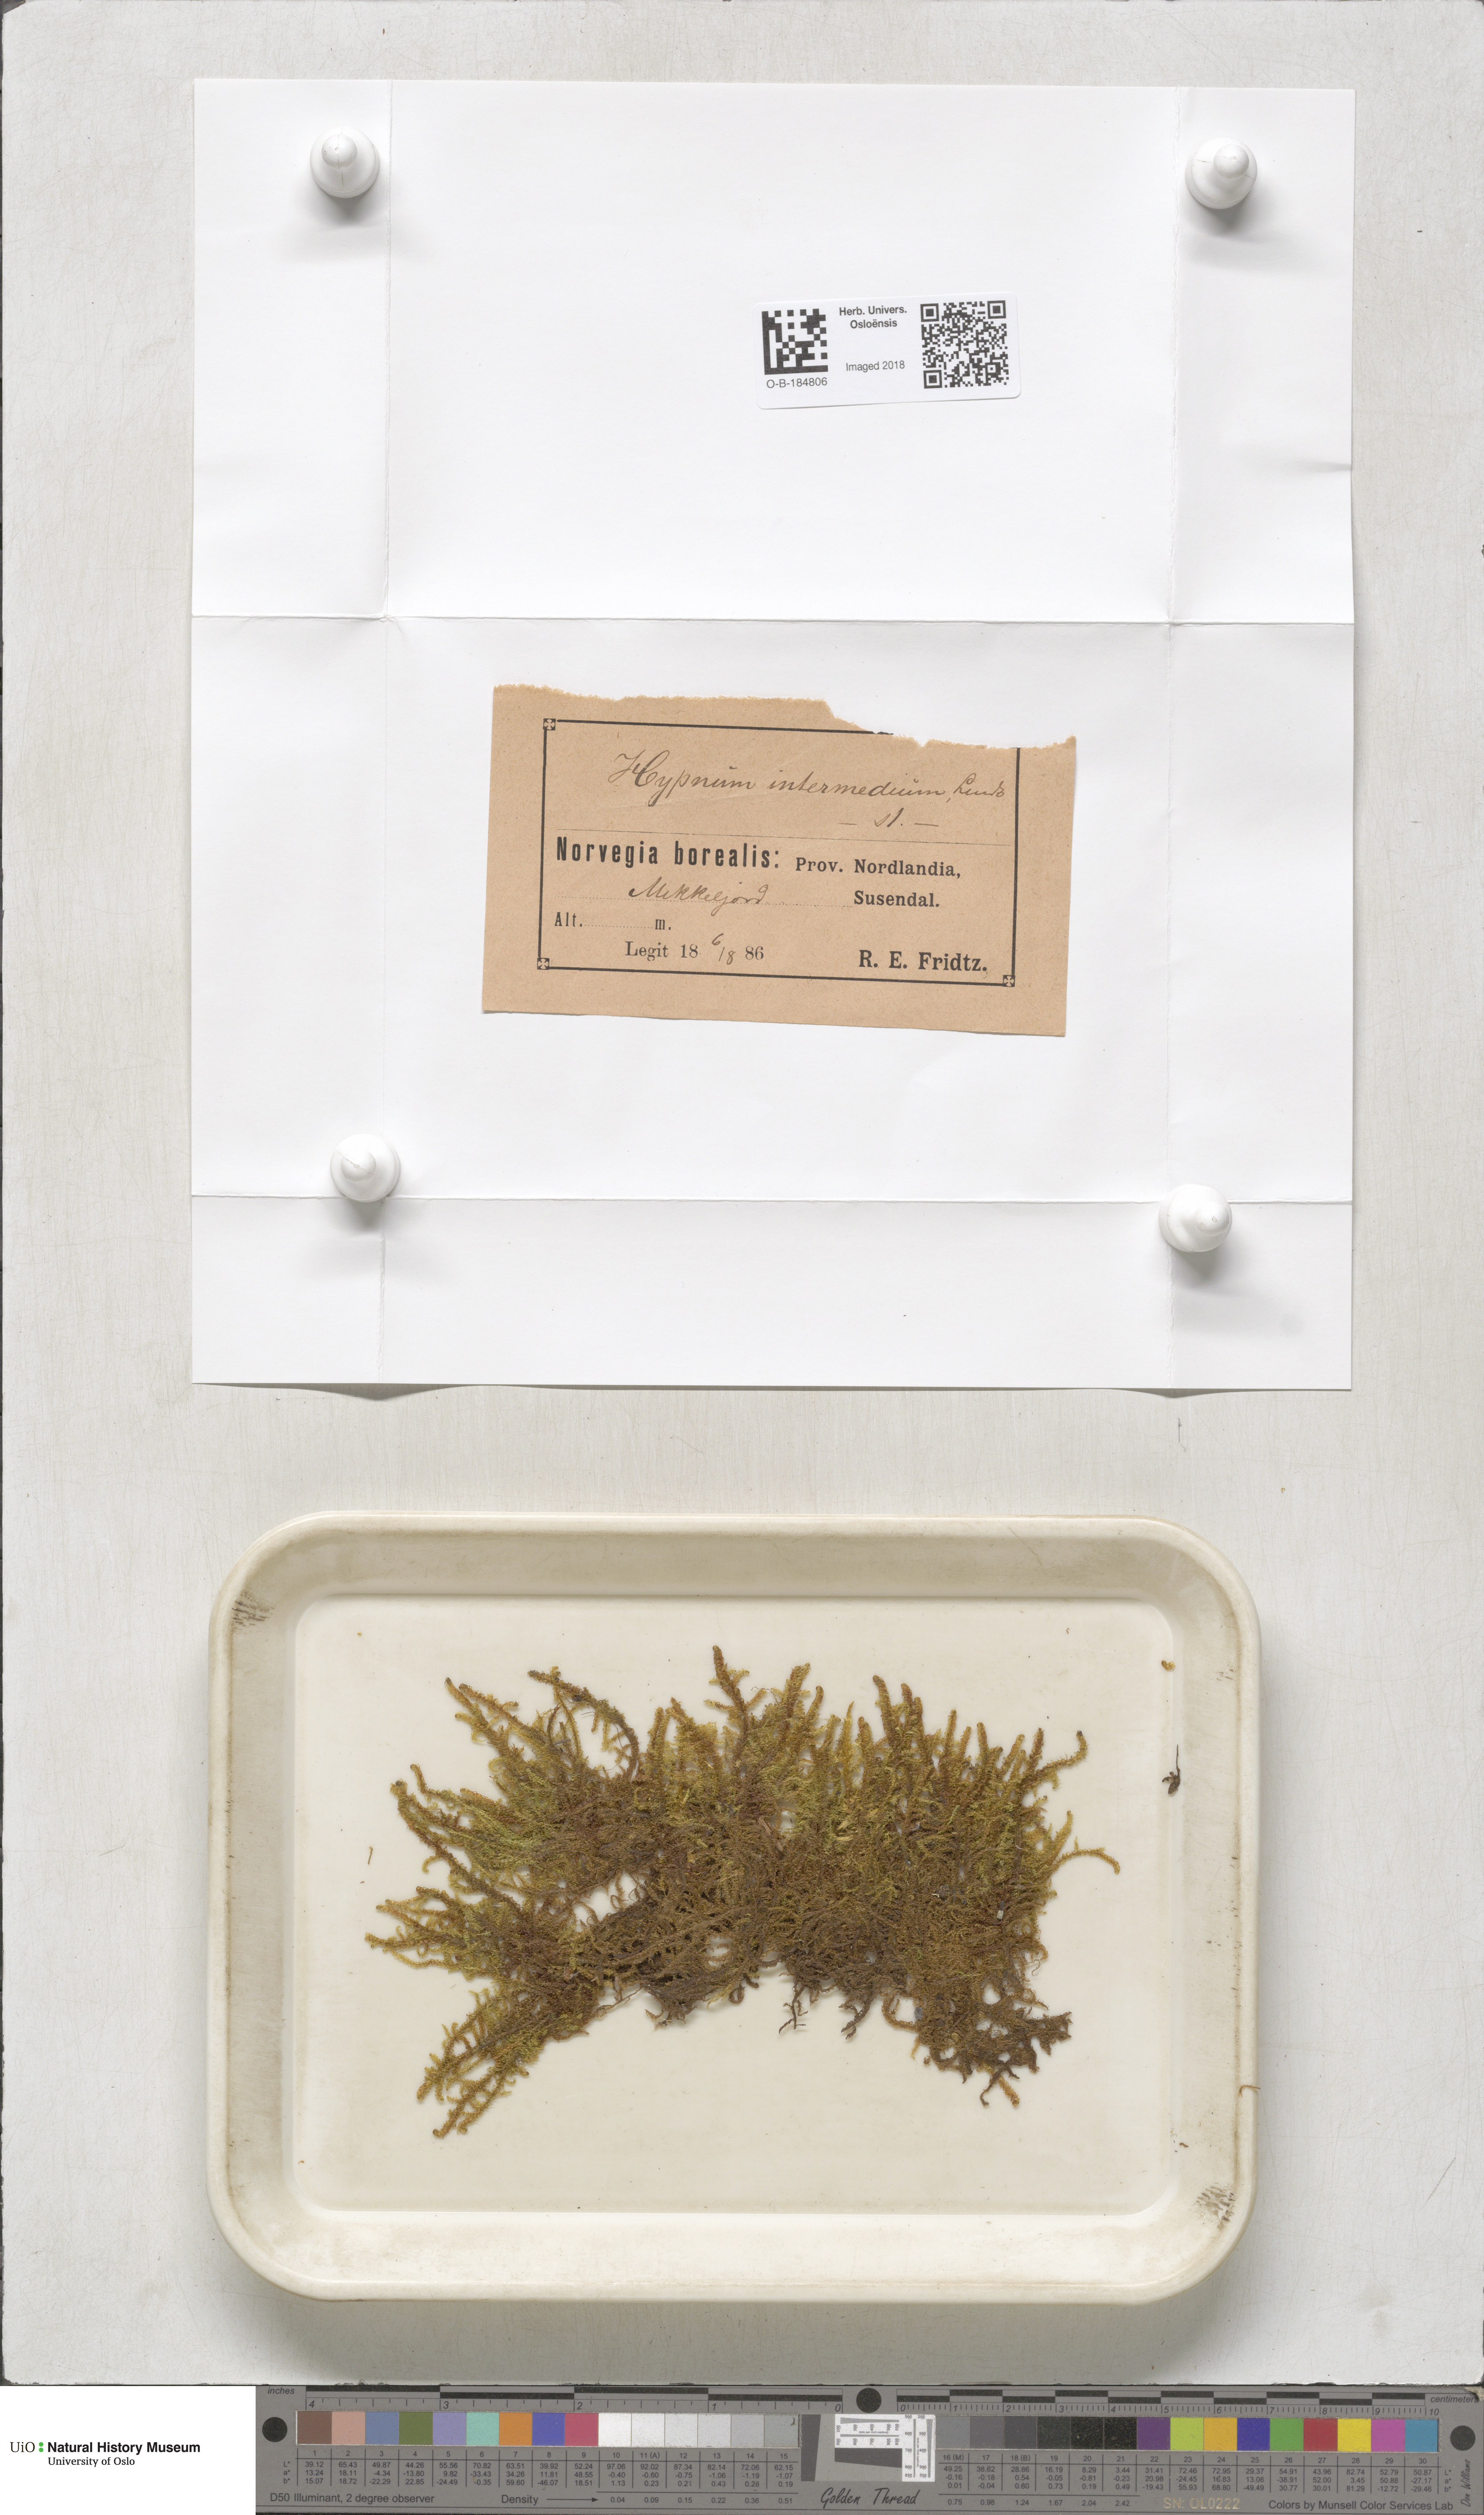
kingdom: Plantae
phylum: Bryophyta
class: Bryopsida
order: Hypnales
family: Scorpidiaceae
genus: Scorpidium
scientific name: Scorpidium cossonii
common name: Cosson's hook moss
